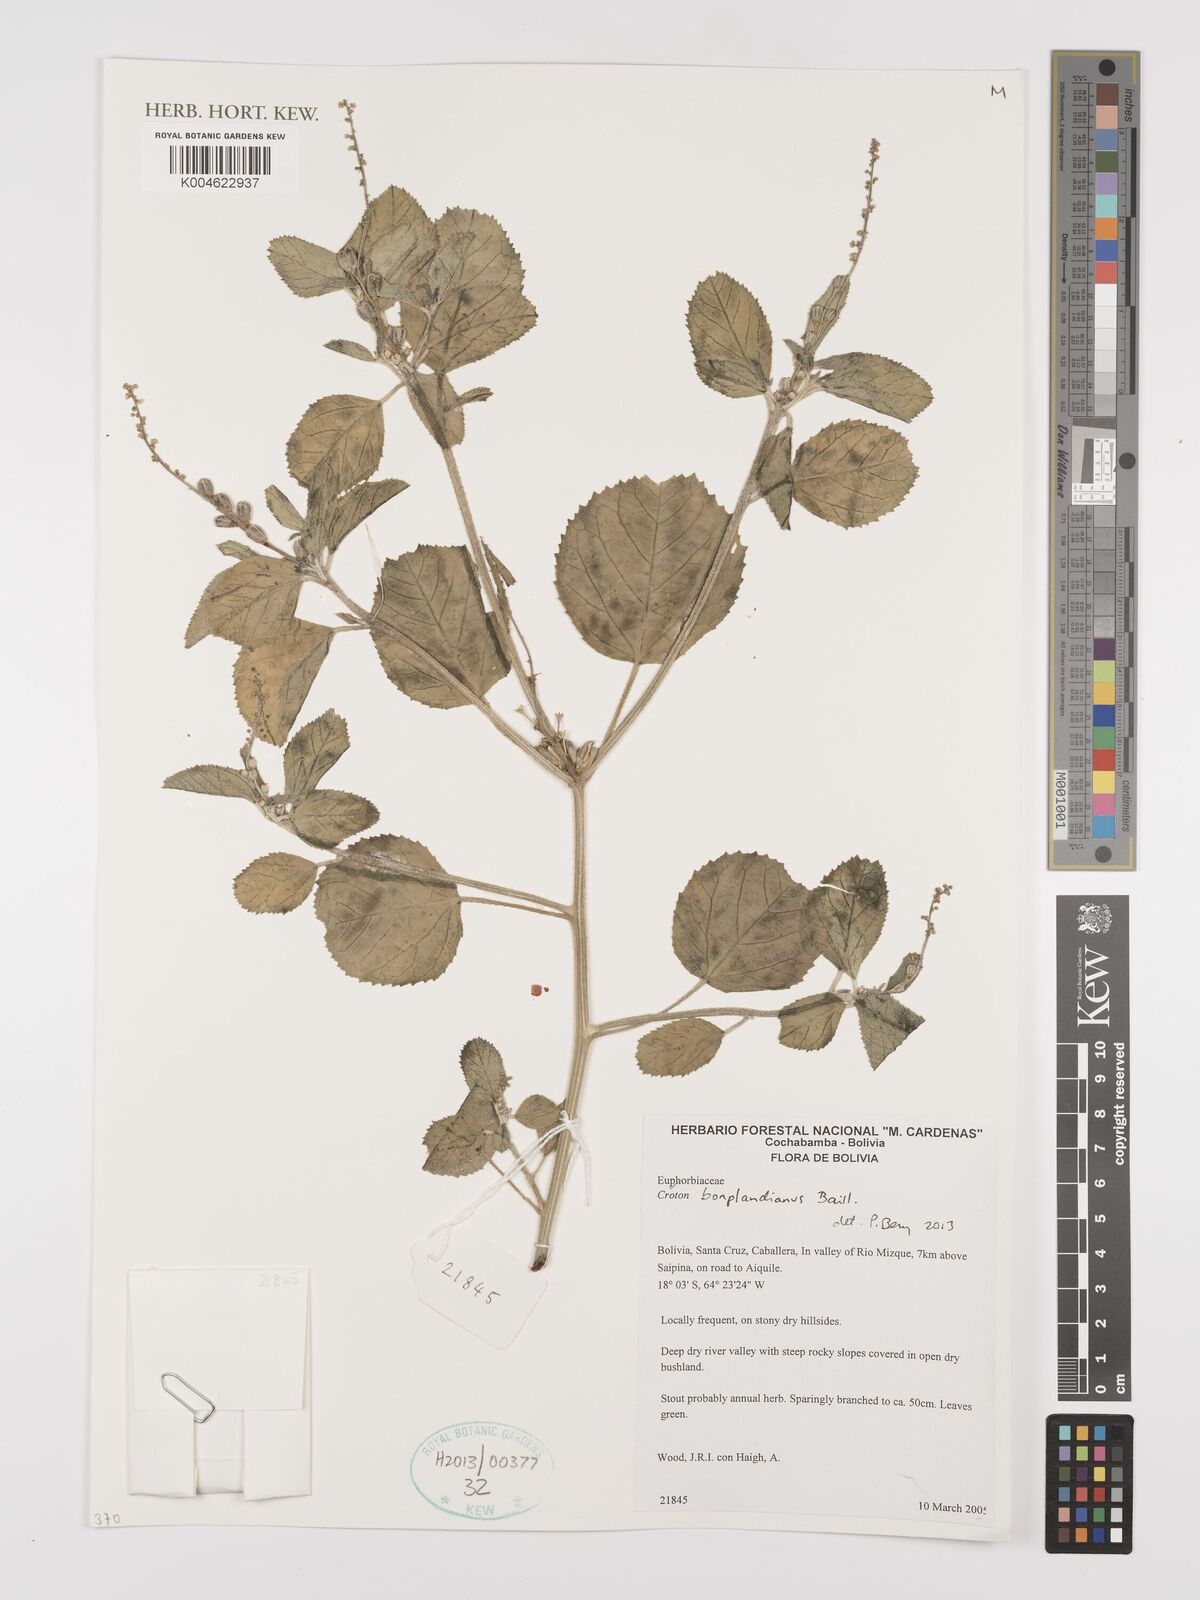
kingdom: Plantae
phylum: Tracheophyta
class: Magnoliopsida
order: Malpighiales
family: Euphorbiaceae
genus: Croton
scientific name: Croton bonplandianus
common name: Bonpland's croton
